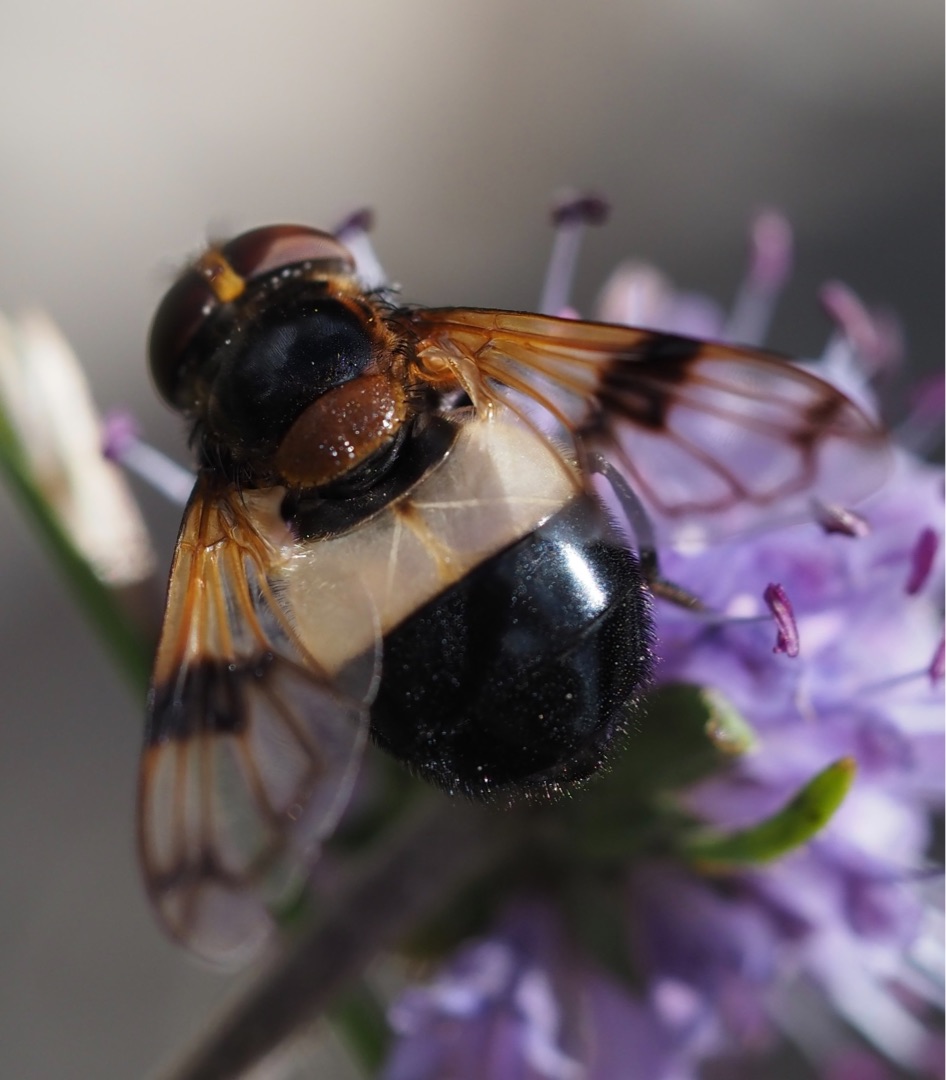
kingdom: Animalia
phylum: Arthropoda
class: Insecta
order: Diptera
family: Syrphidae
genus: Volucella
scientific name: Volucella pellucens
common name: Hvidbåndet humlesvirreflue
